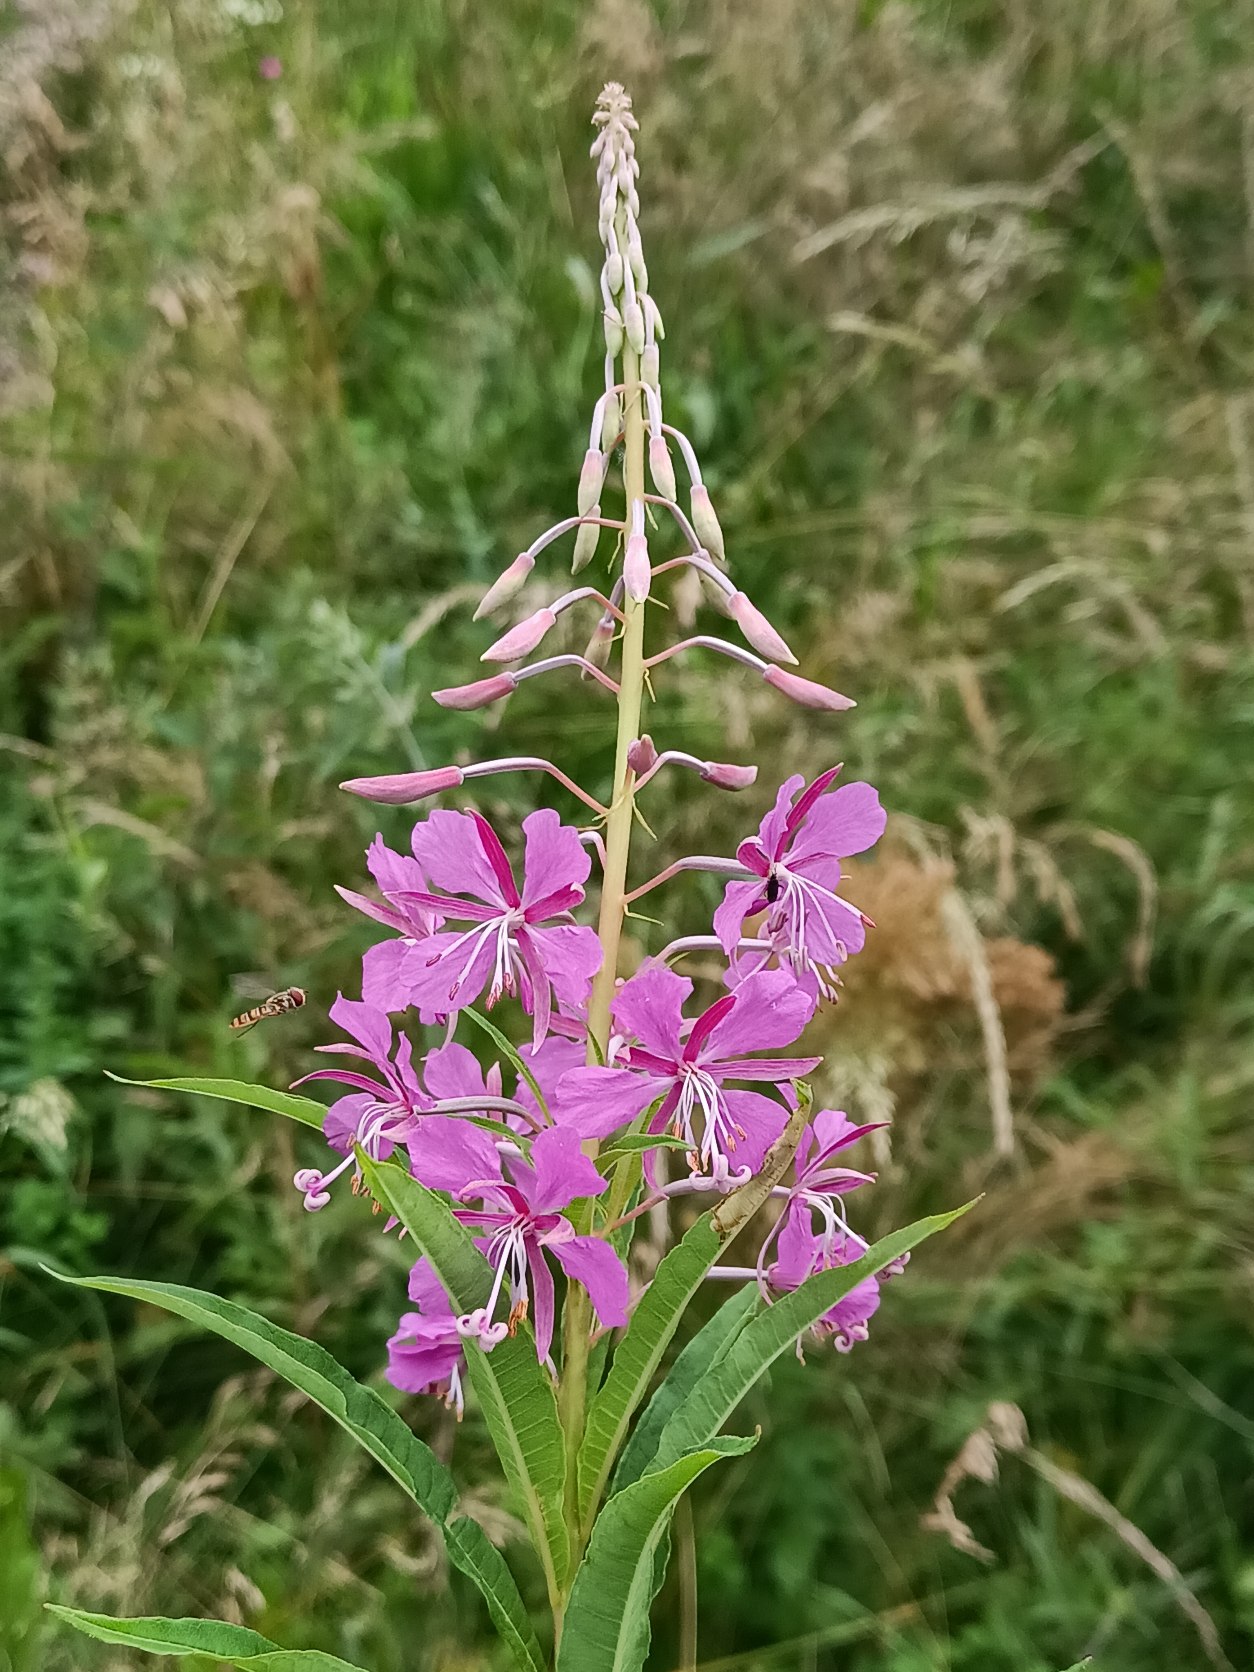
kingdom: Plantae
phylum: Tracheophyta
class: Magnoliopsida
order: Myrtales
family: Onagraceae
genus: Chamaenerion
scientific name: Chamaenerion angustifolium
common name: Gederams
